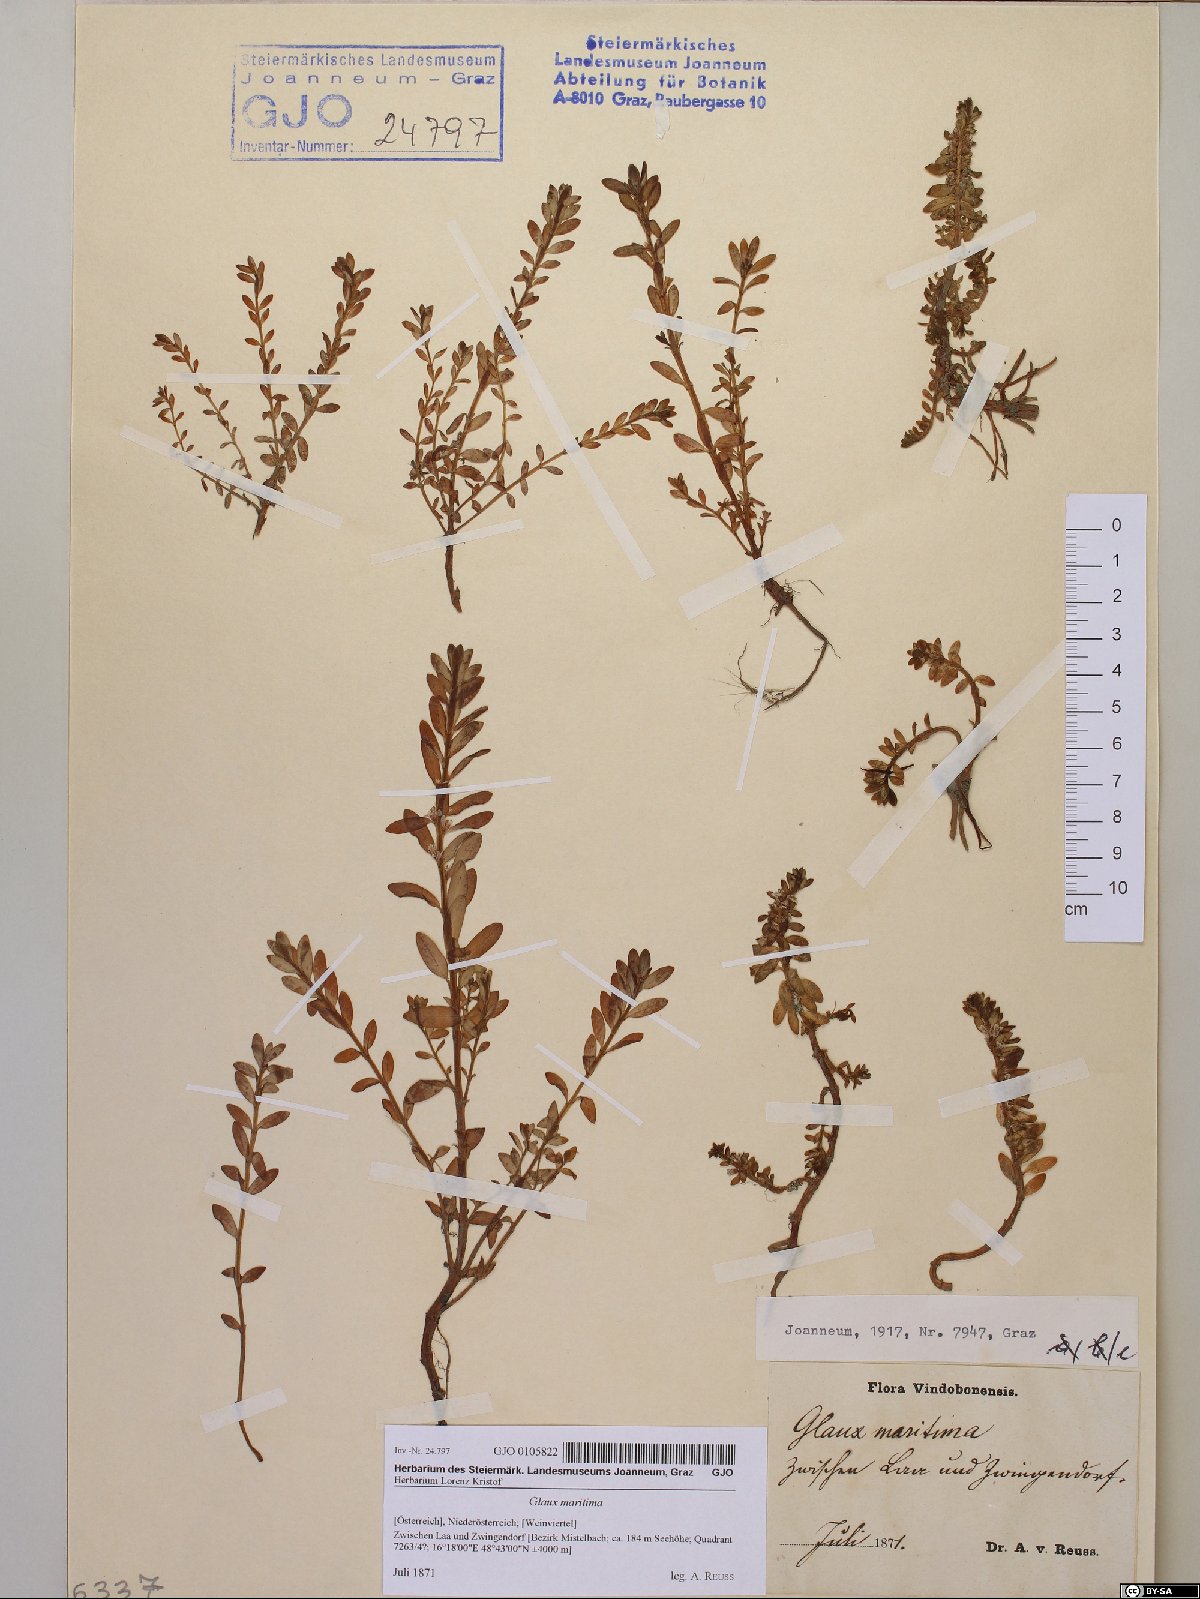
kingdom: Plantae
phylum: Tracheophyta
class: Magnoliopsida
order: Ericales
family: Primulaceae
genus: Lysimachia
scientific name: Lysimachia maritima
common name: Sea milkwort
